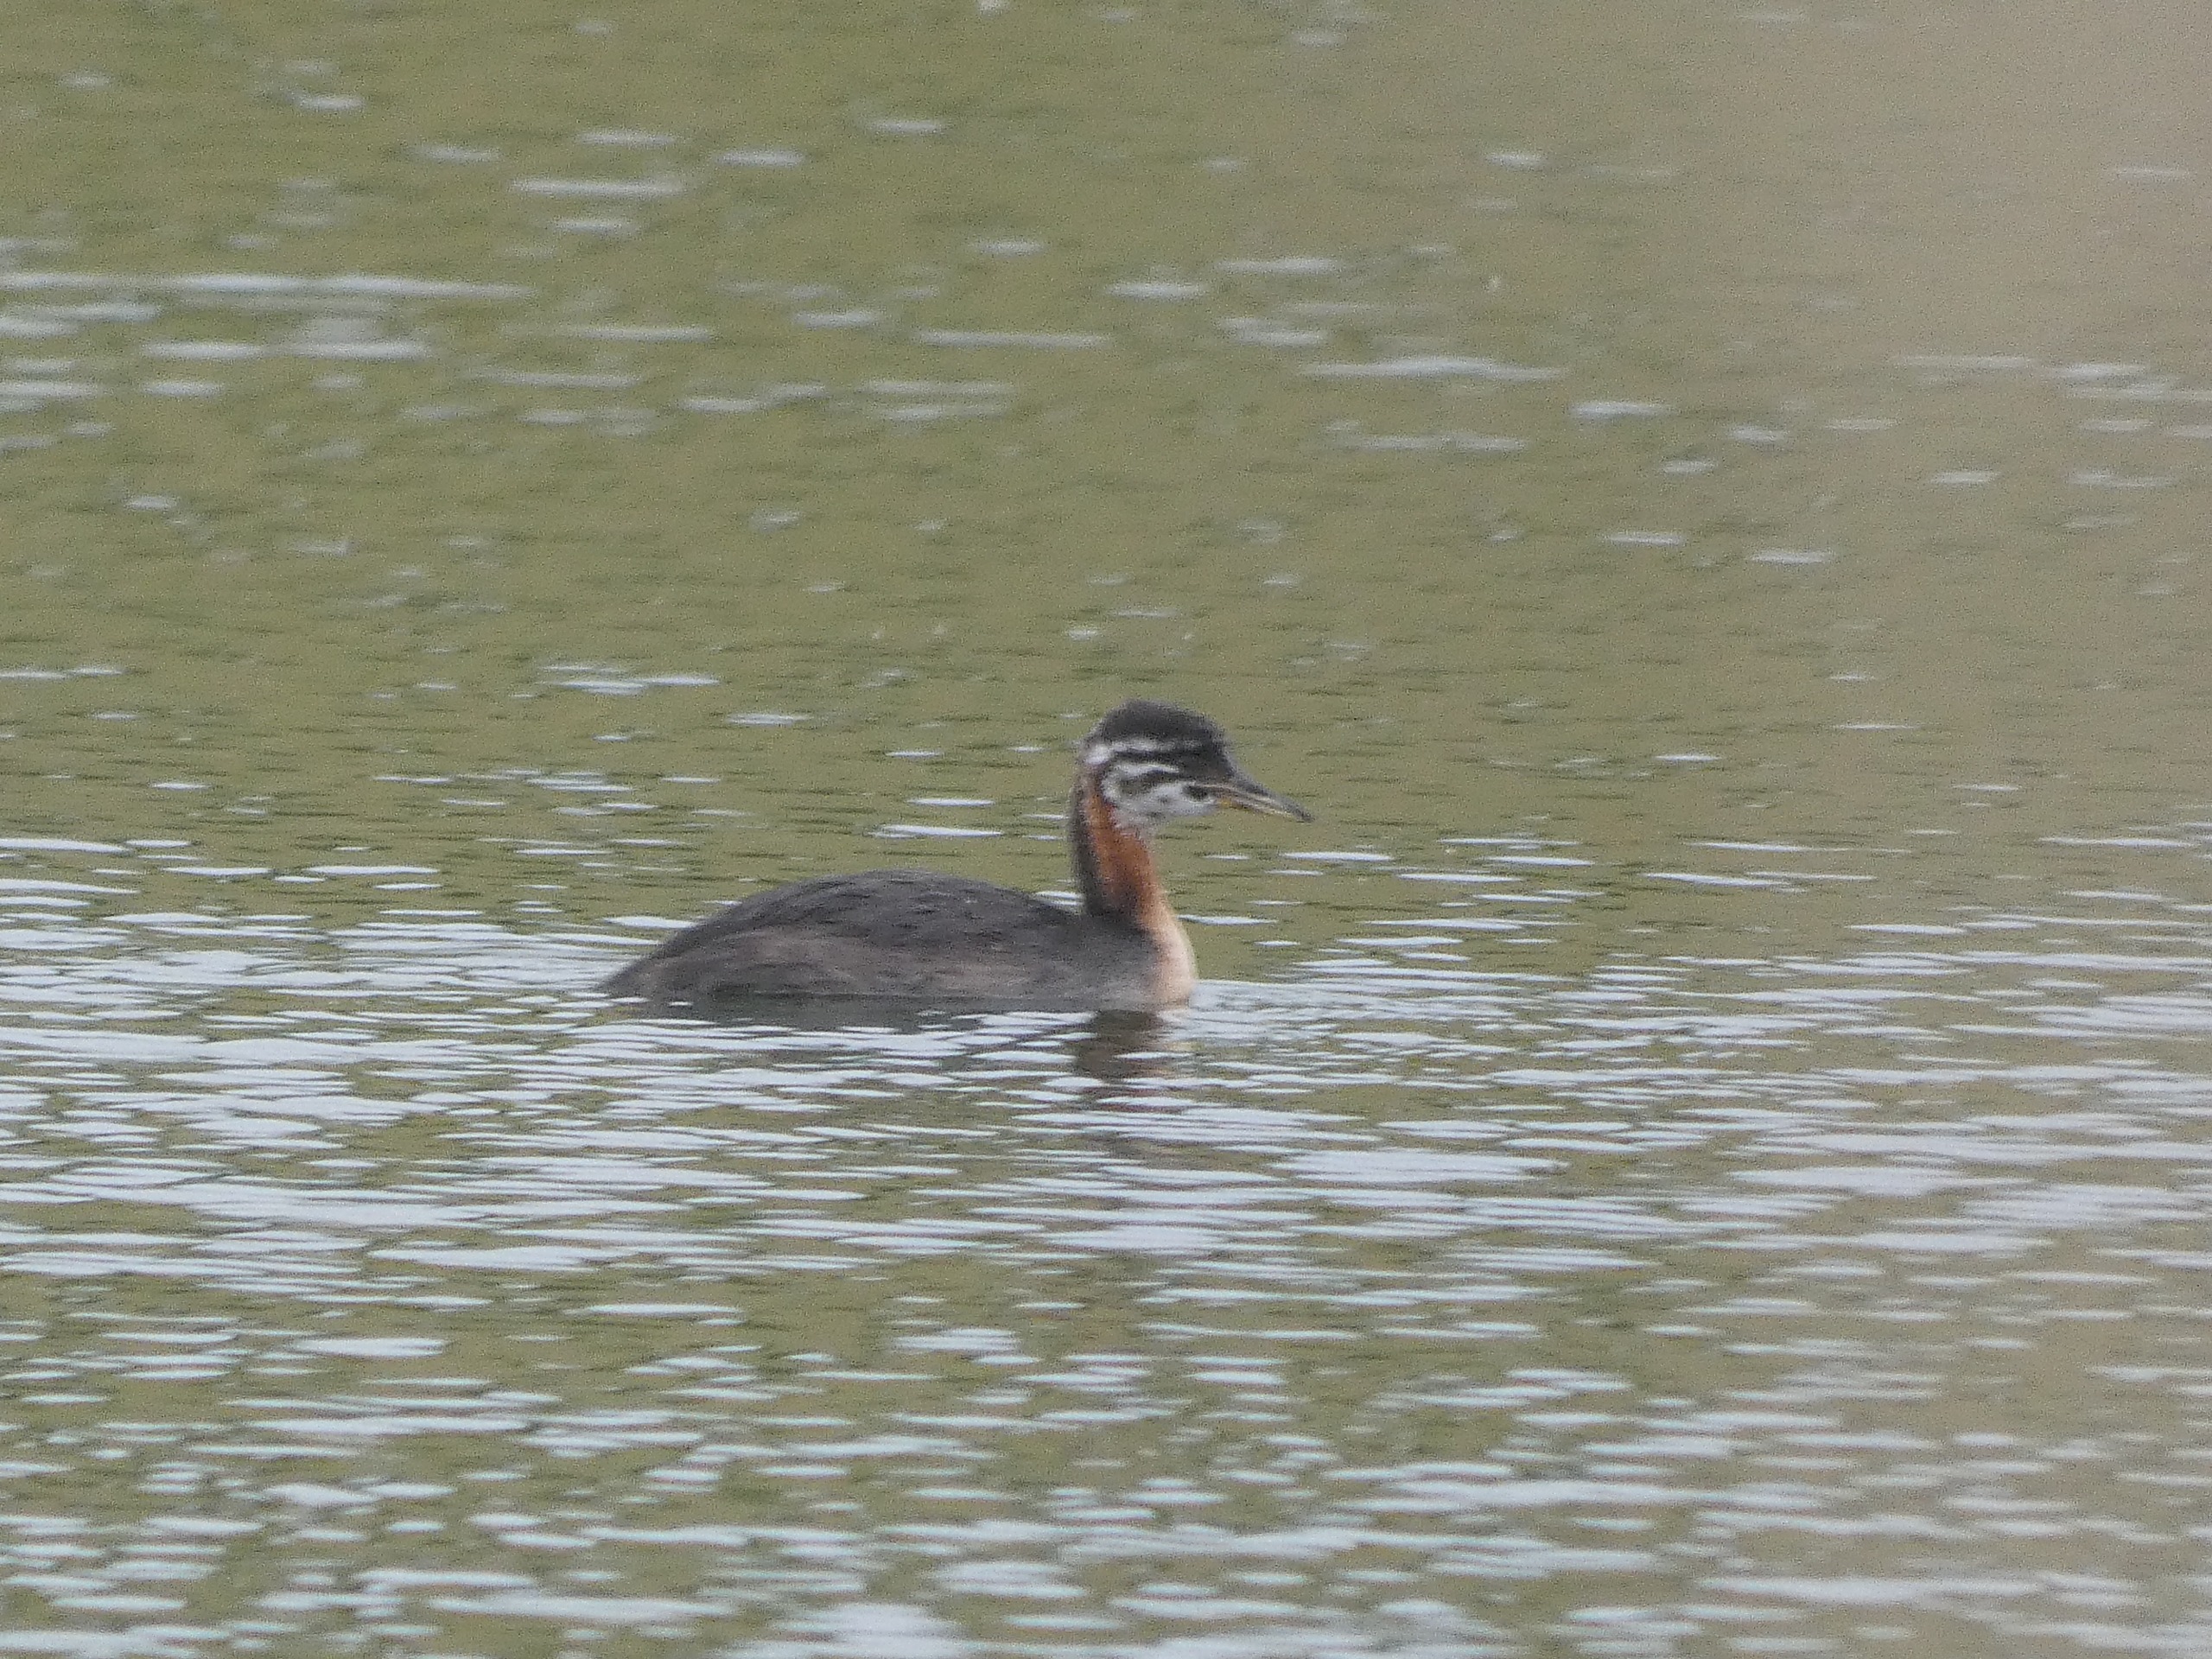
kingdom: Animalia
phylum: Chordata
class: Aves
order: Podicipediformes
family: Podicipedidae
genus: Podiceps
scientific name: Podiceps grisegena
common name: Gråstrubet lappedykker
